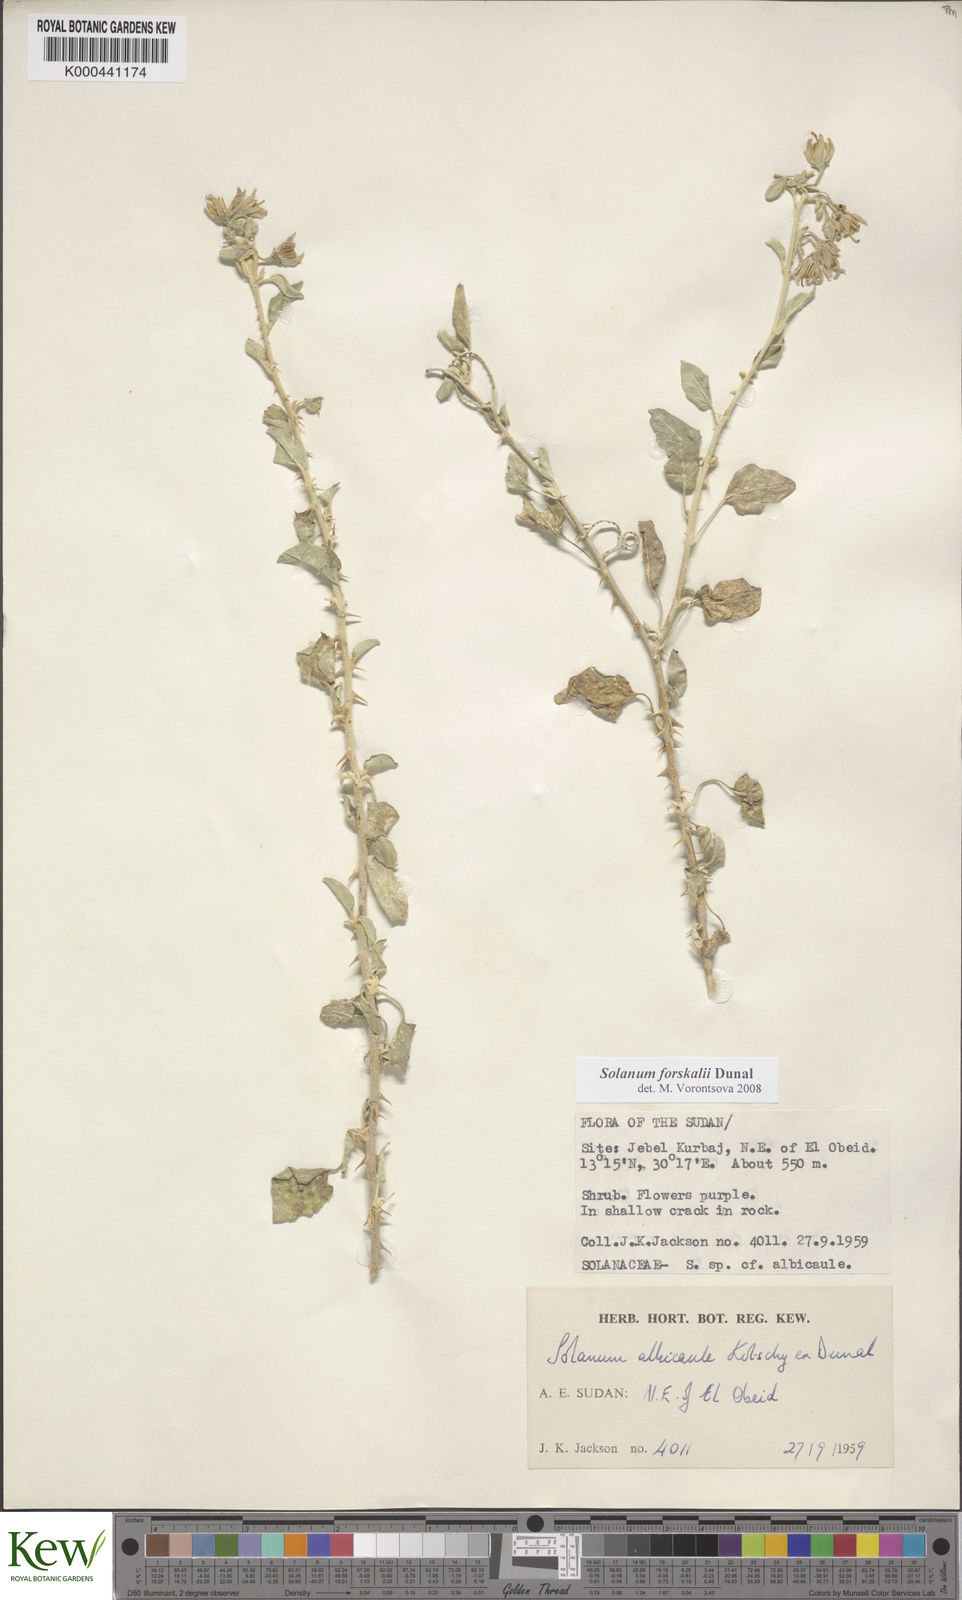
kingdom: Plantae
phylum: Tracheophyta
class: Magnoliopsida
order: Solanales
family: Solanaceae
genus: Solanum
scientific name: Solanum
